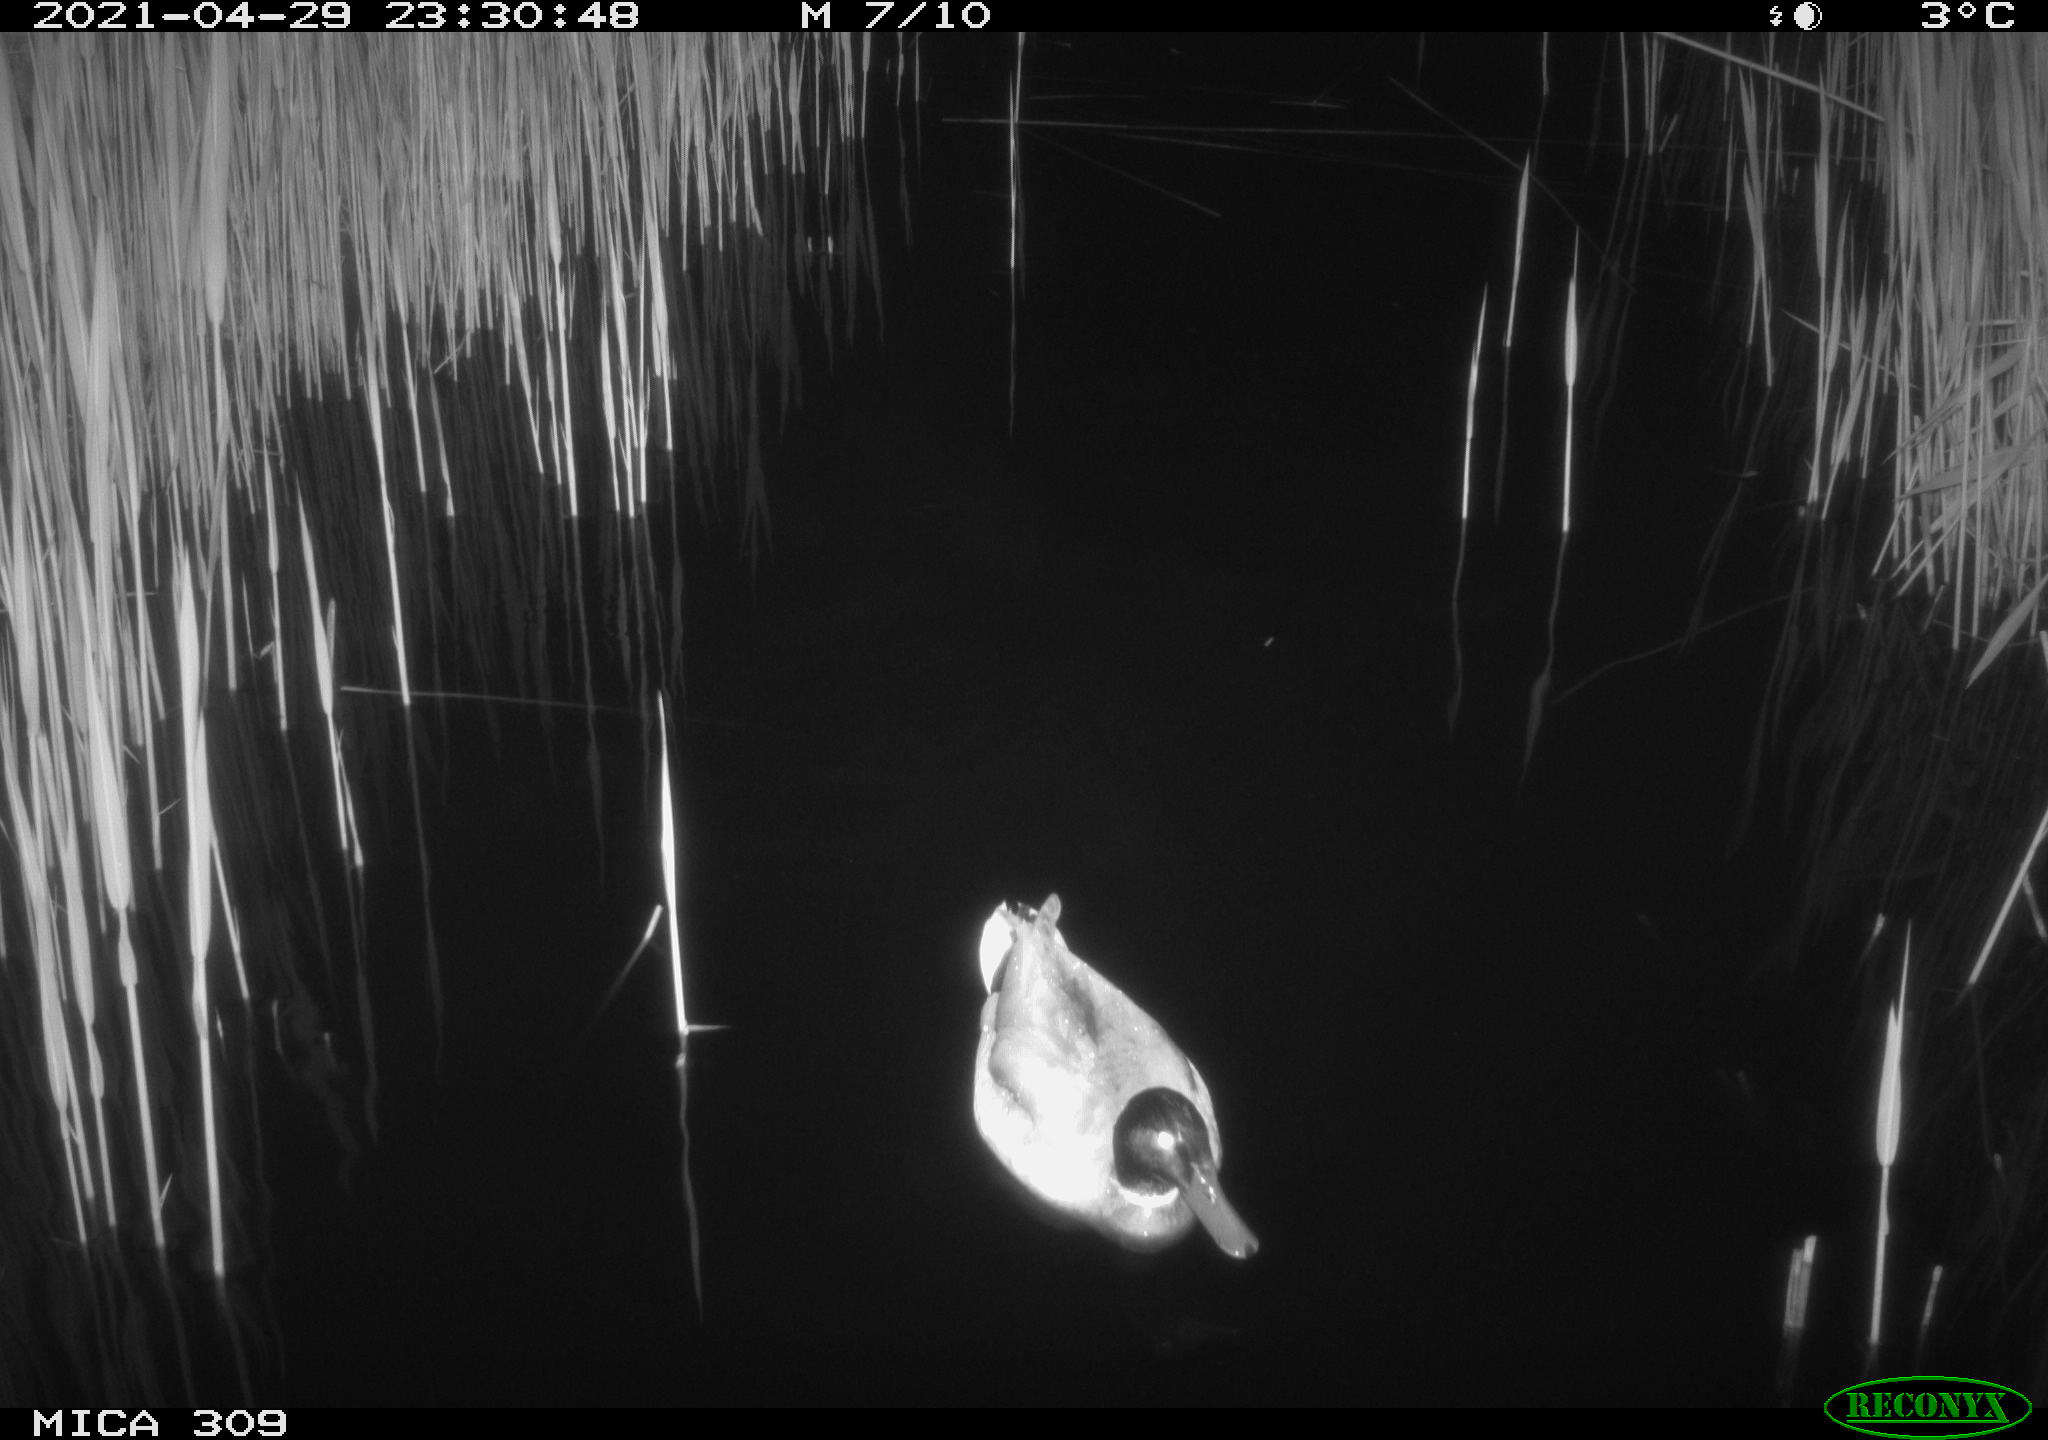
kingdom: Animalia
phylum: Chordata
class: Aves
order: Anseriformes
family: Anatidae
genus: Anas
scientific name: Anas platyrhynchos
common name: Mallard
